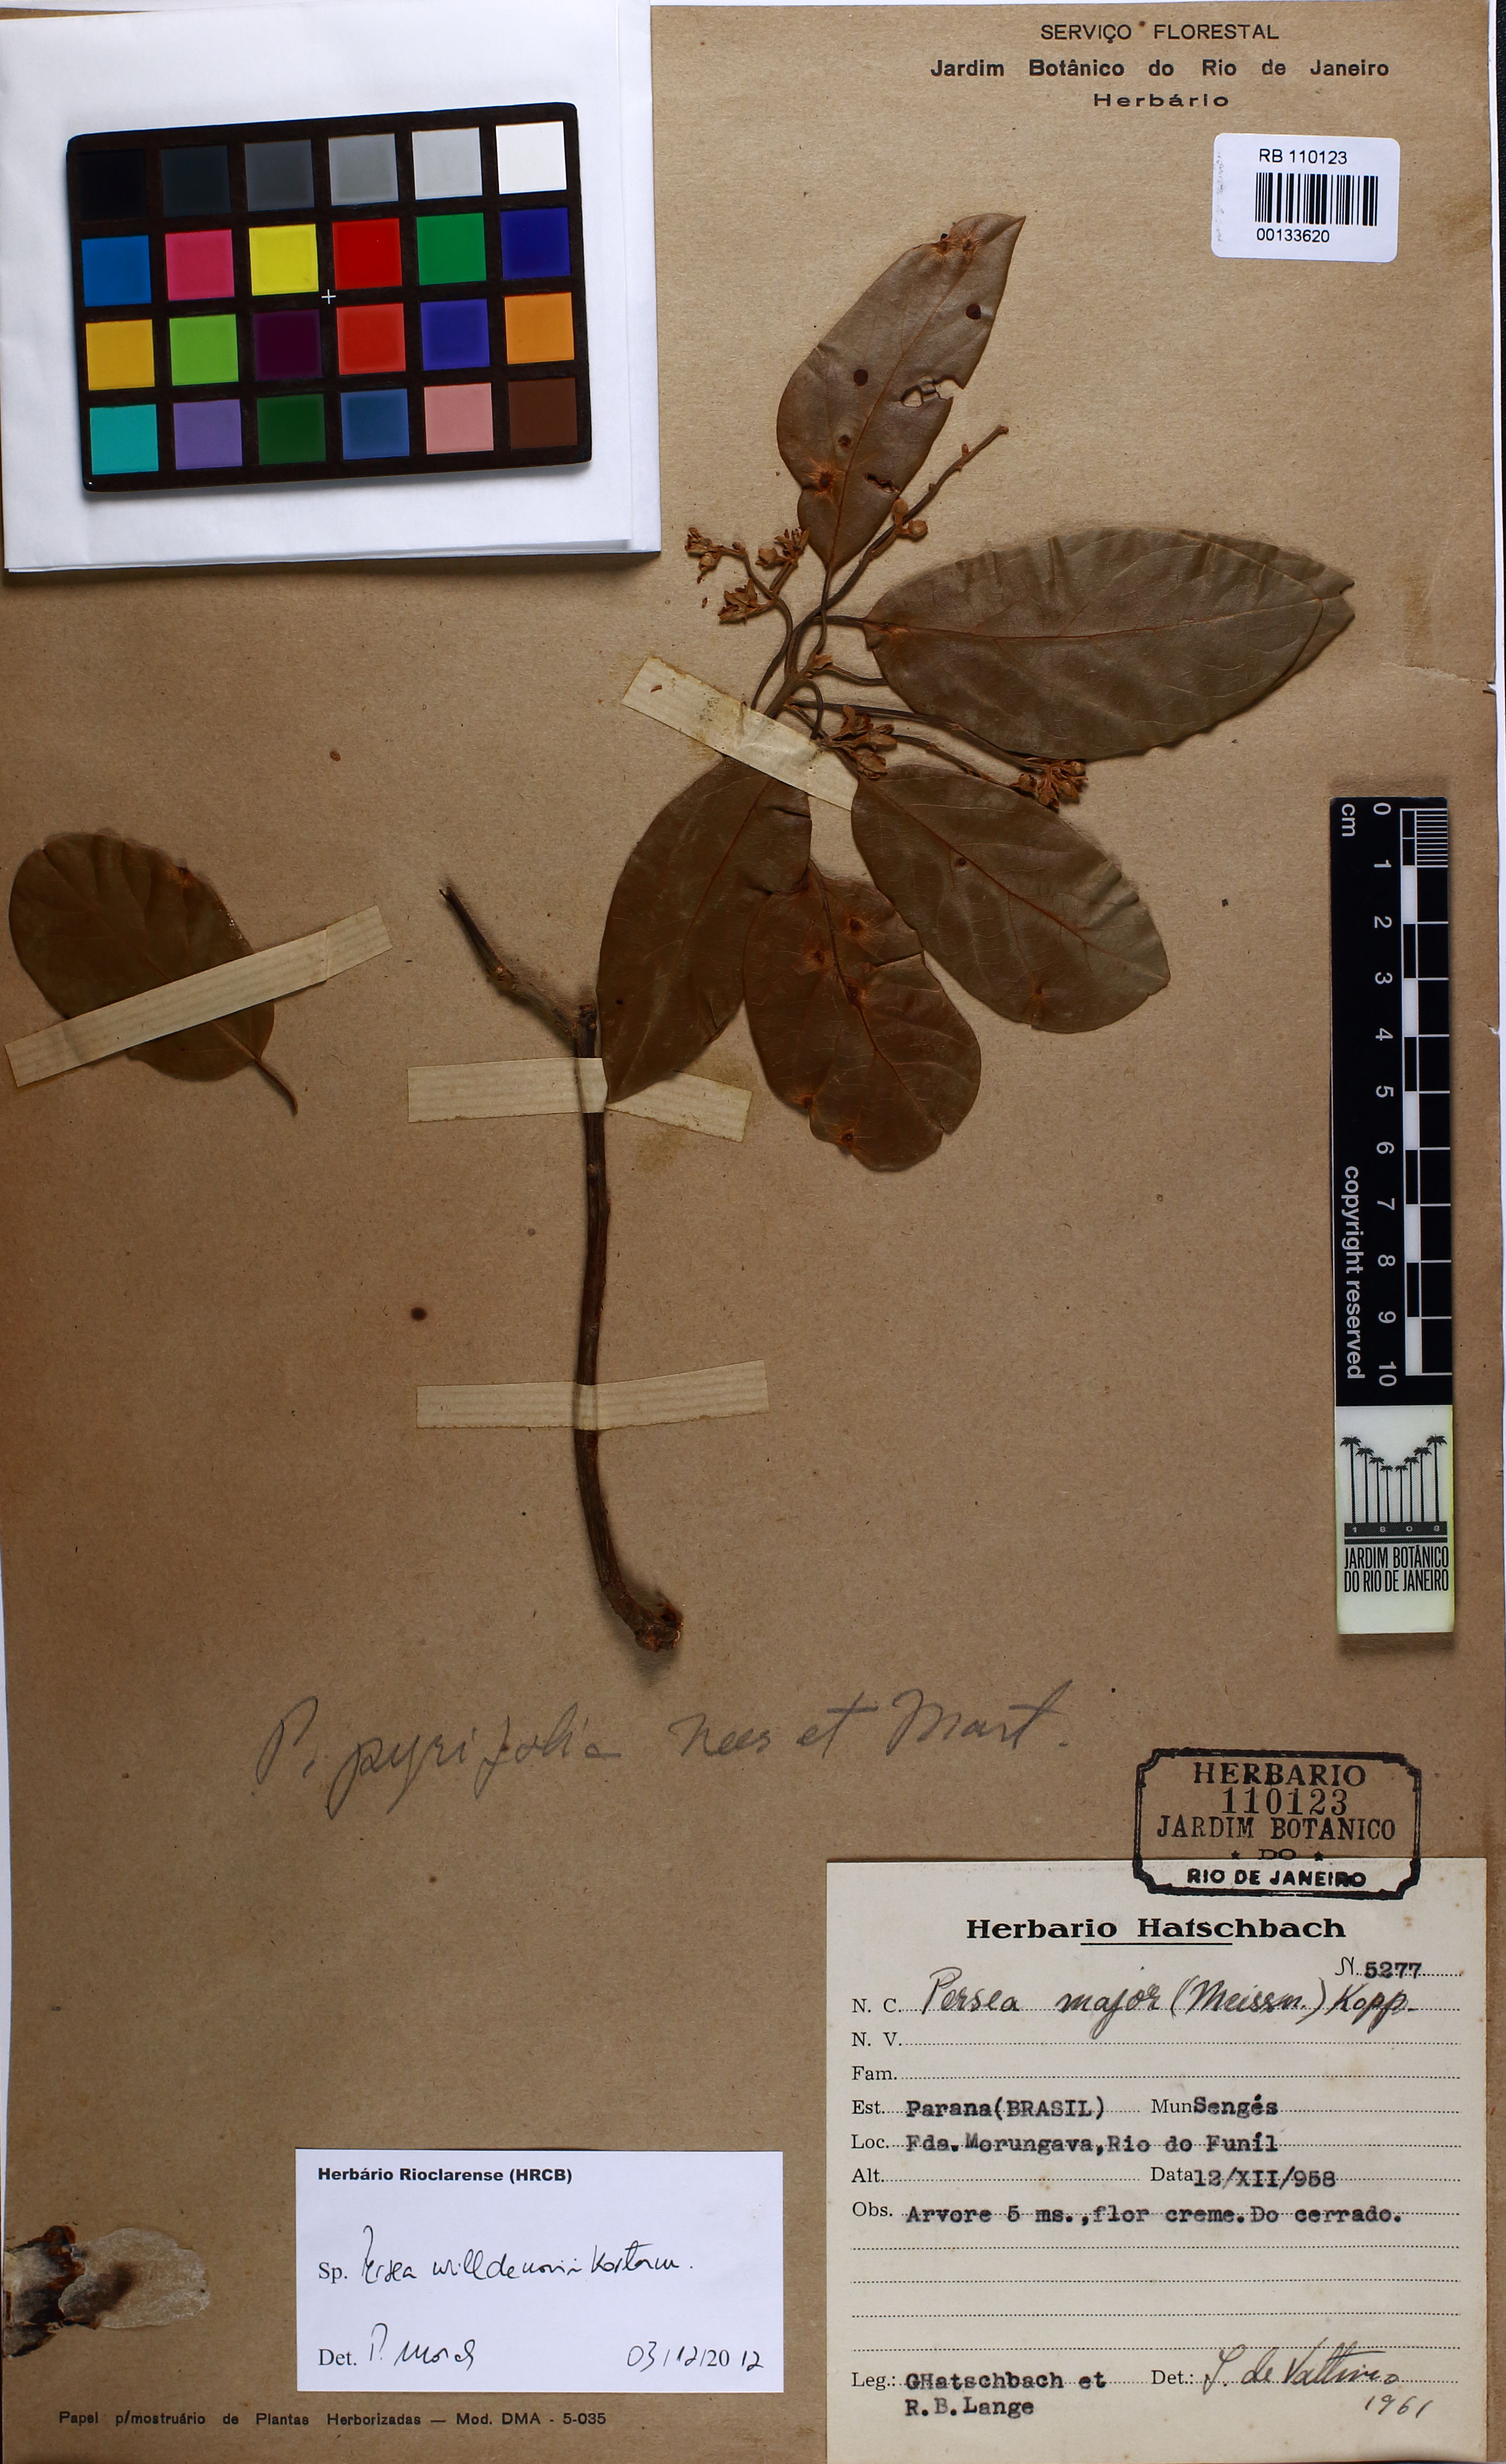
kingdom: Plantae
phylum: Tracheophyta
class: Magnoliopsida
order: Laurales
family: Lauraceae
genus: Persea
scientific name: Persea willdenovii
